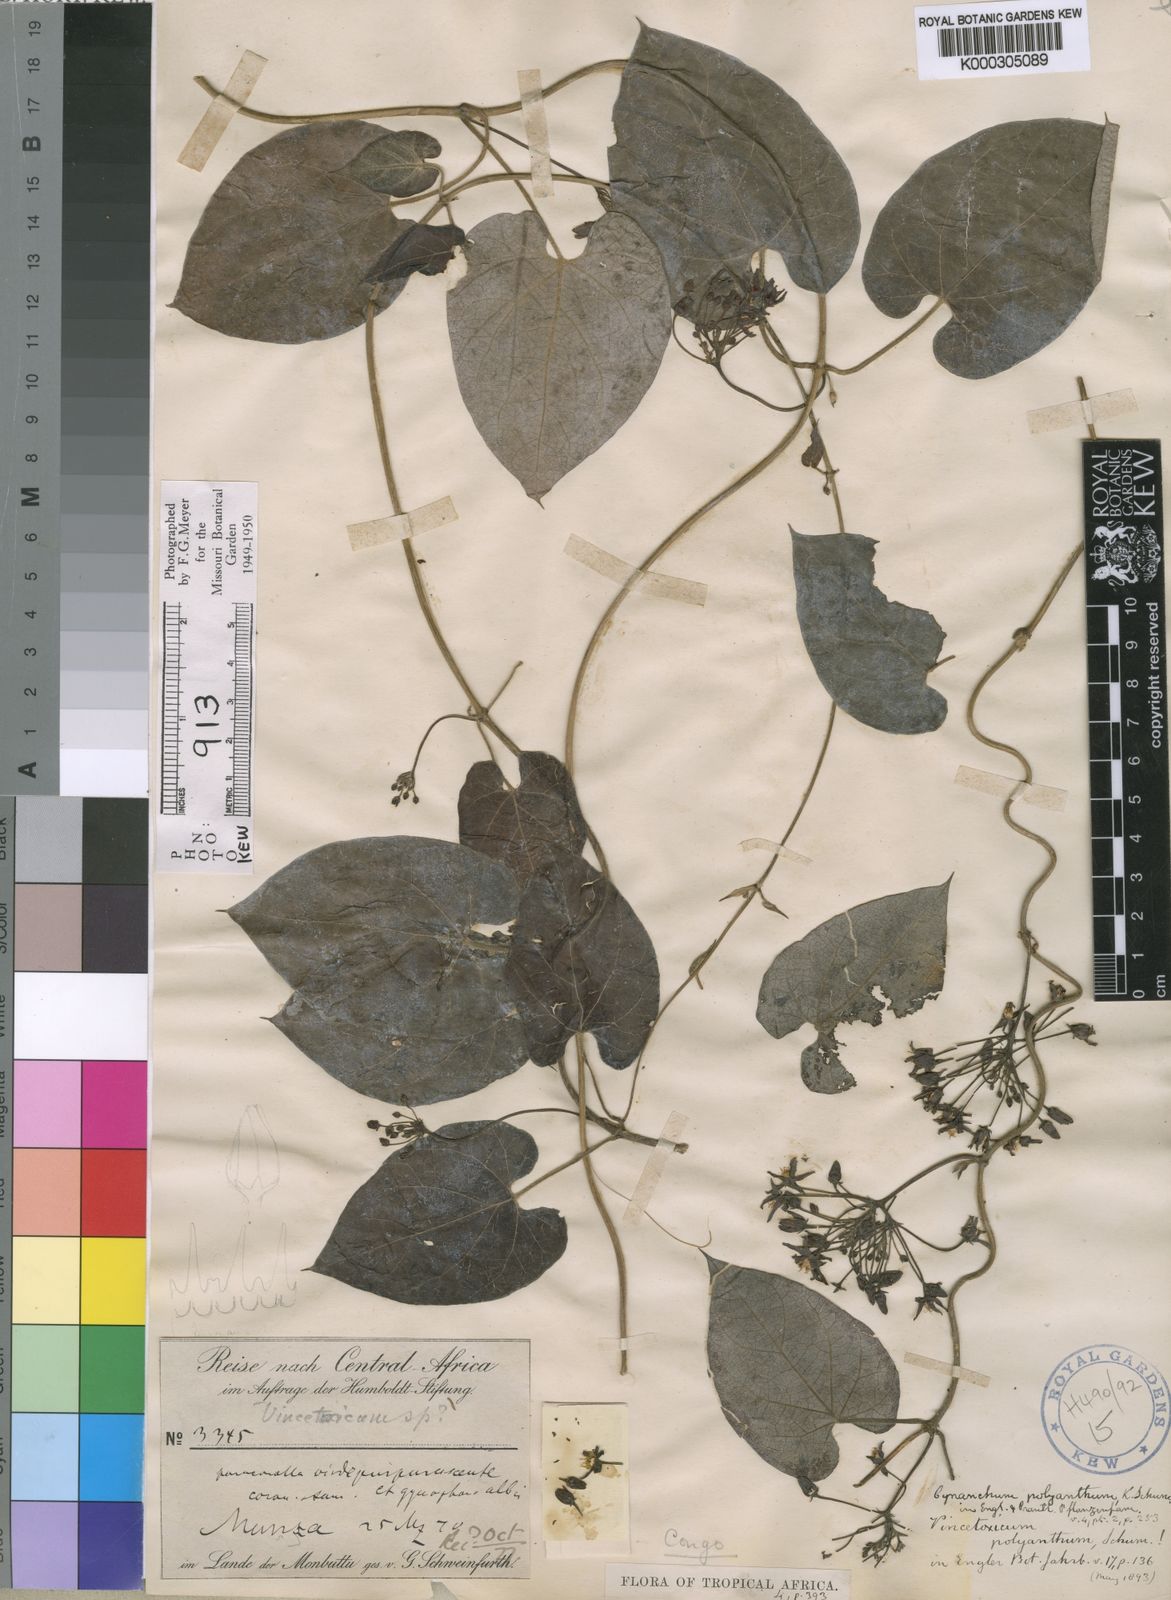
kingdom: Plantae
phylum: Tracheophyta
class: Magnoliopsida
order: Gentianales
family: Apocynaceae
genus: Cynanchum
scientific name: Cynanchum polyanthum
